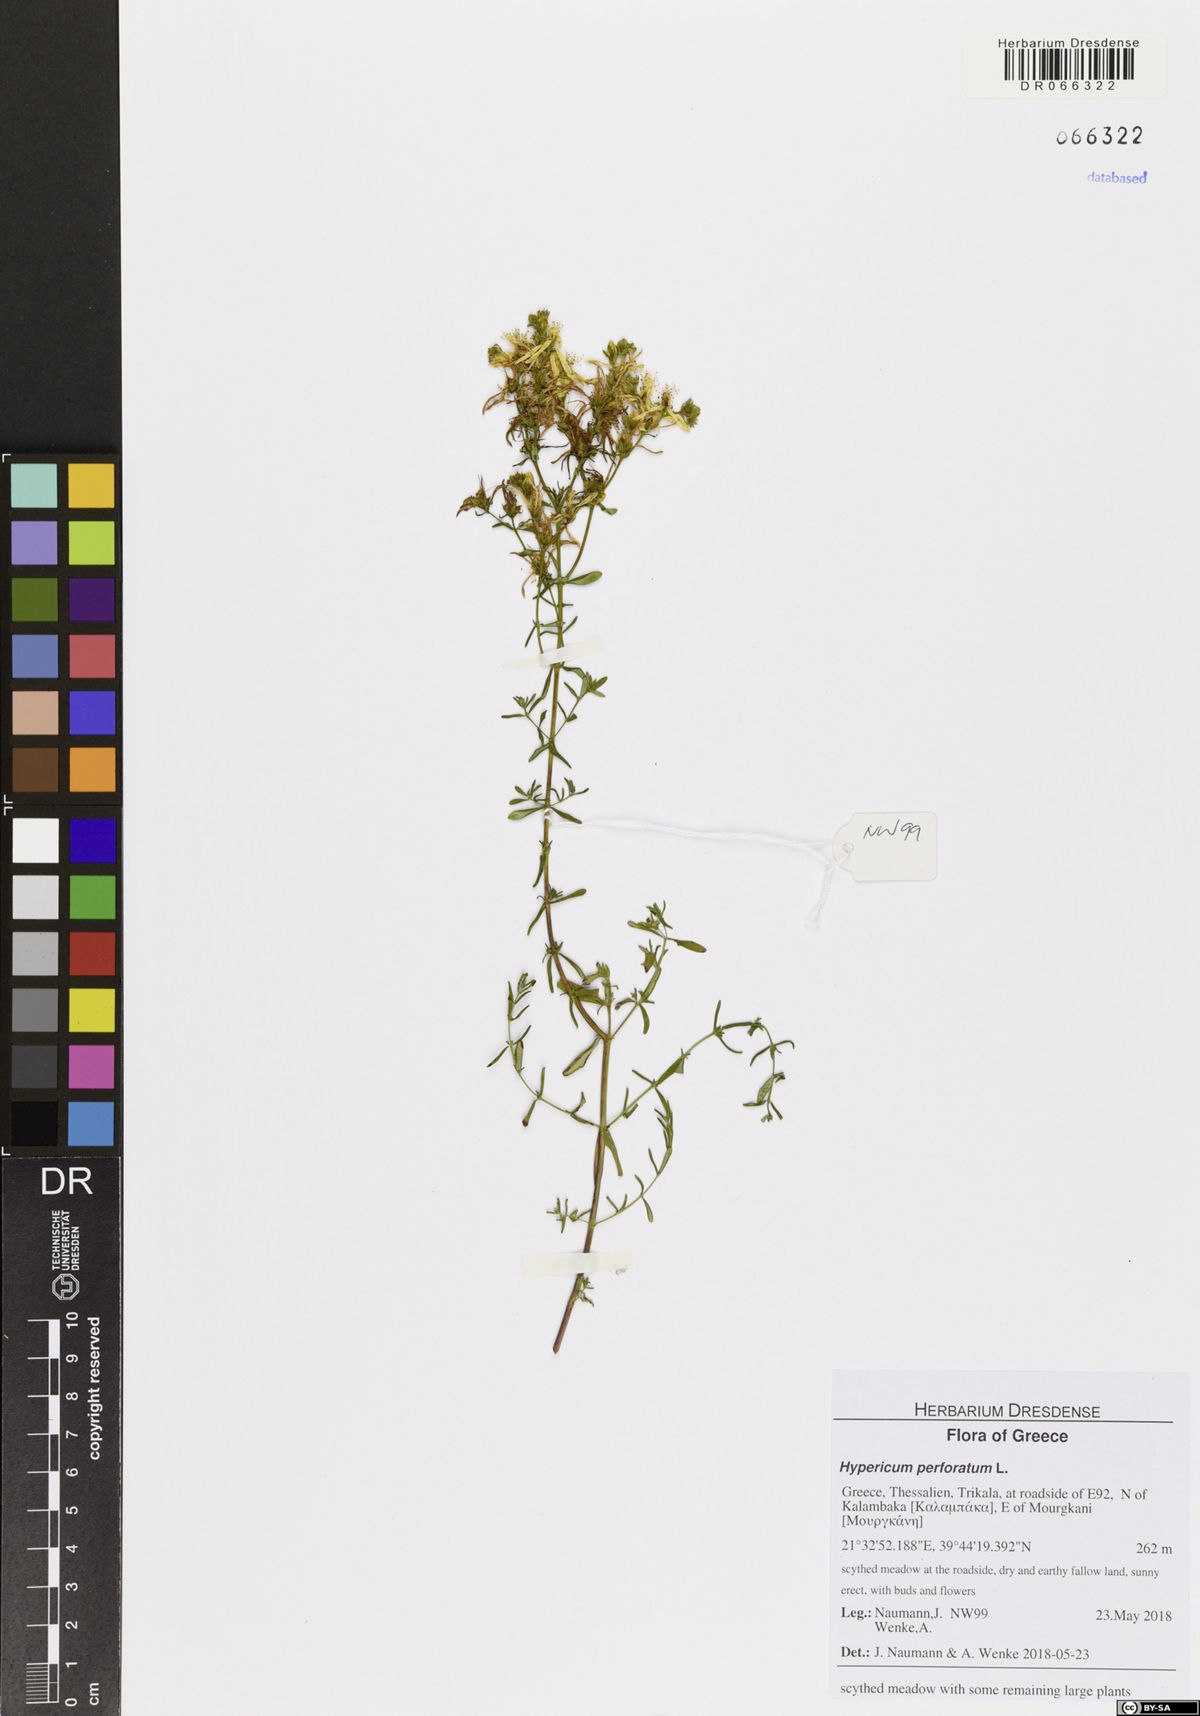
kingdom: Plantae
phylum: Tracheophyta
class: Magnoliopsida
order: Malpighiales
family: Hypericaceae
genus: Hypericum
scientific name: Hypericum perforatum
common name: Common st. johnswort
